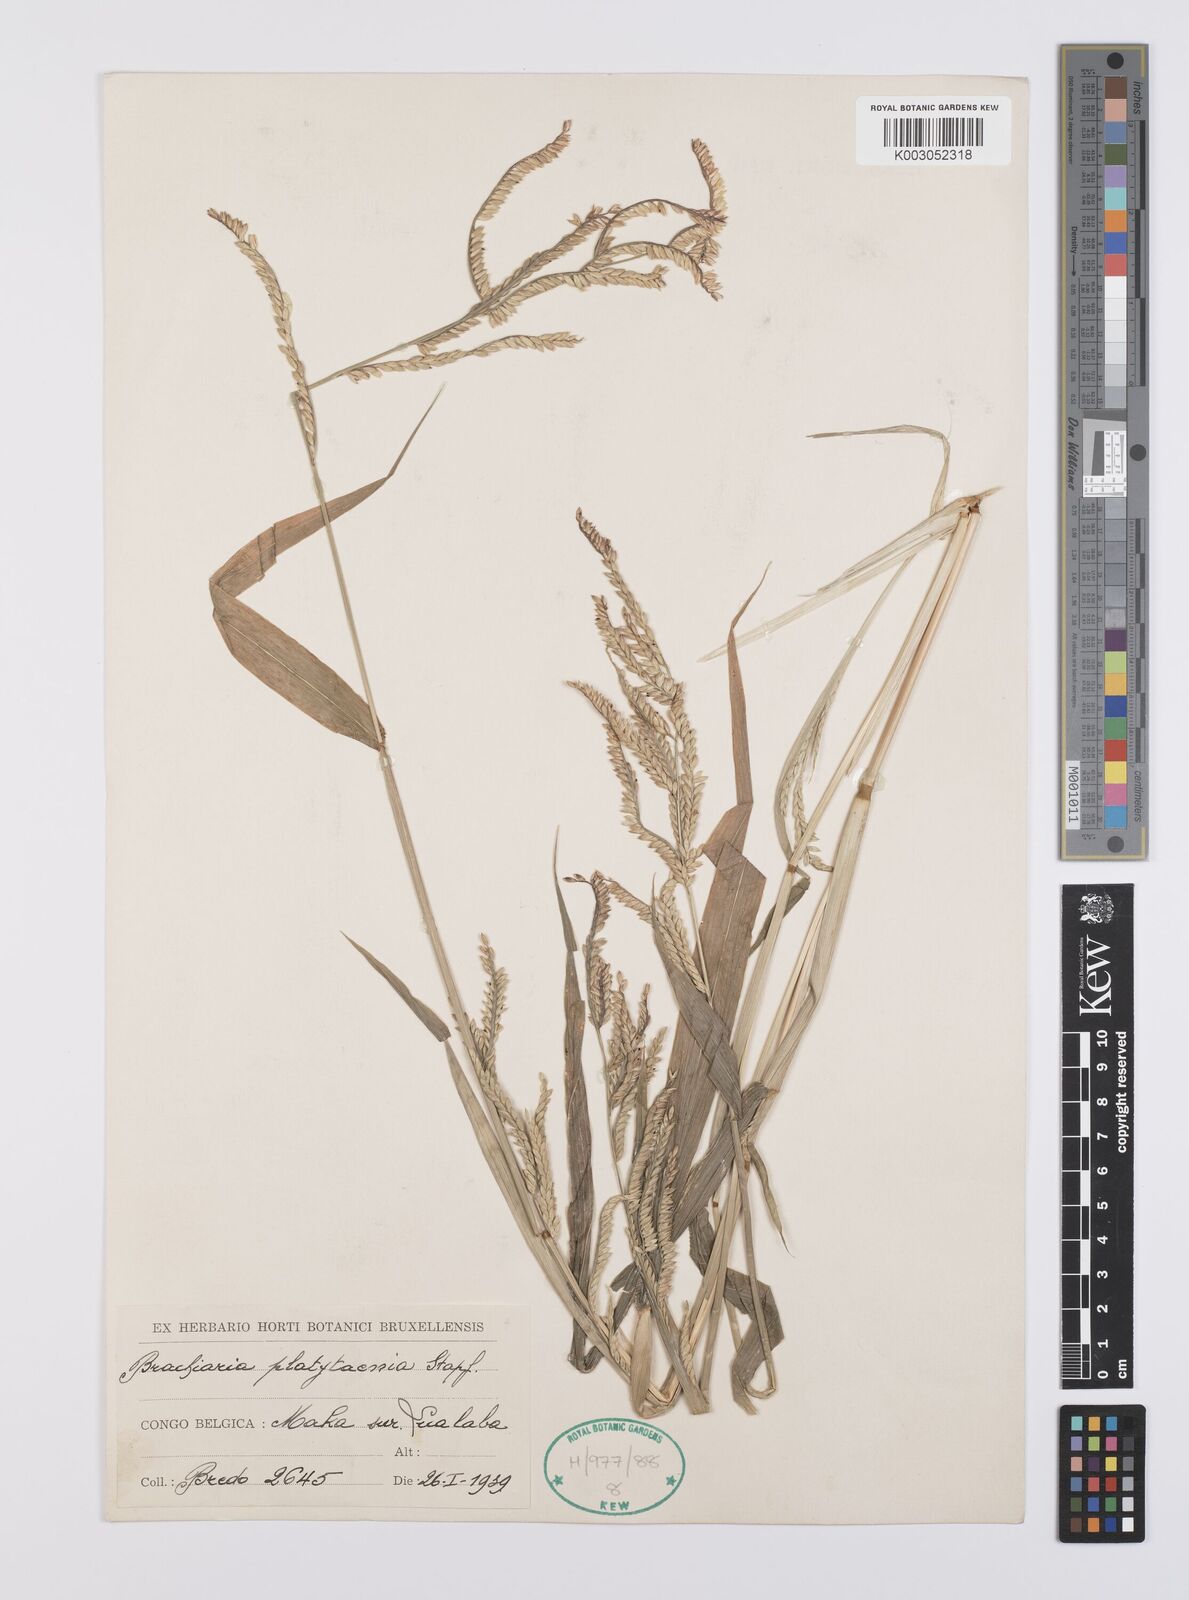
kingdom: Plantae
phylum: Tracheophyta
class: Liliopsida
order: Poales
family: Poaceae
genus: Urochloa
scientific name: Urochloa oligobrachiata
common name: Weak signalgrass
